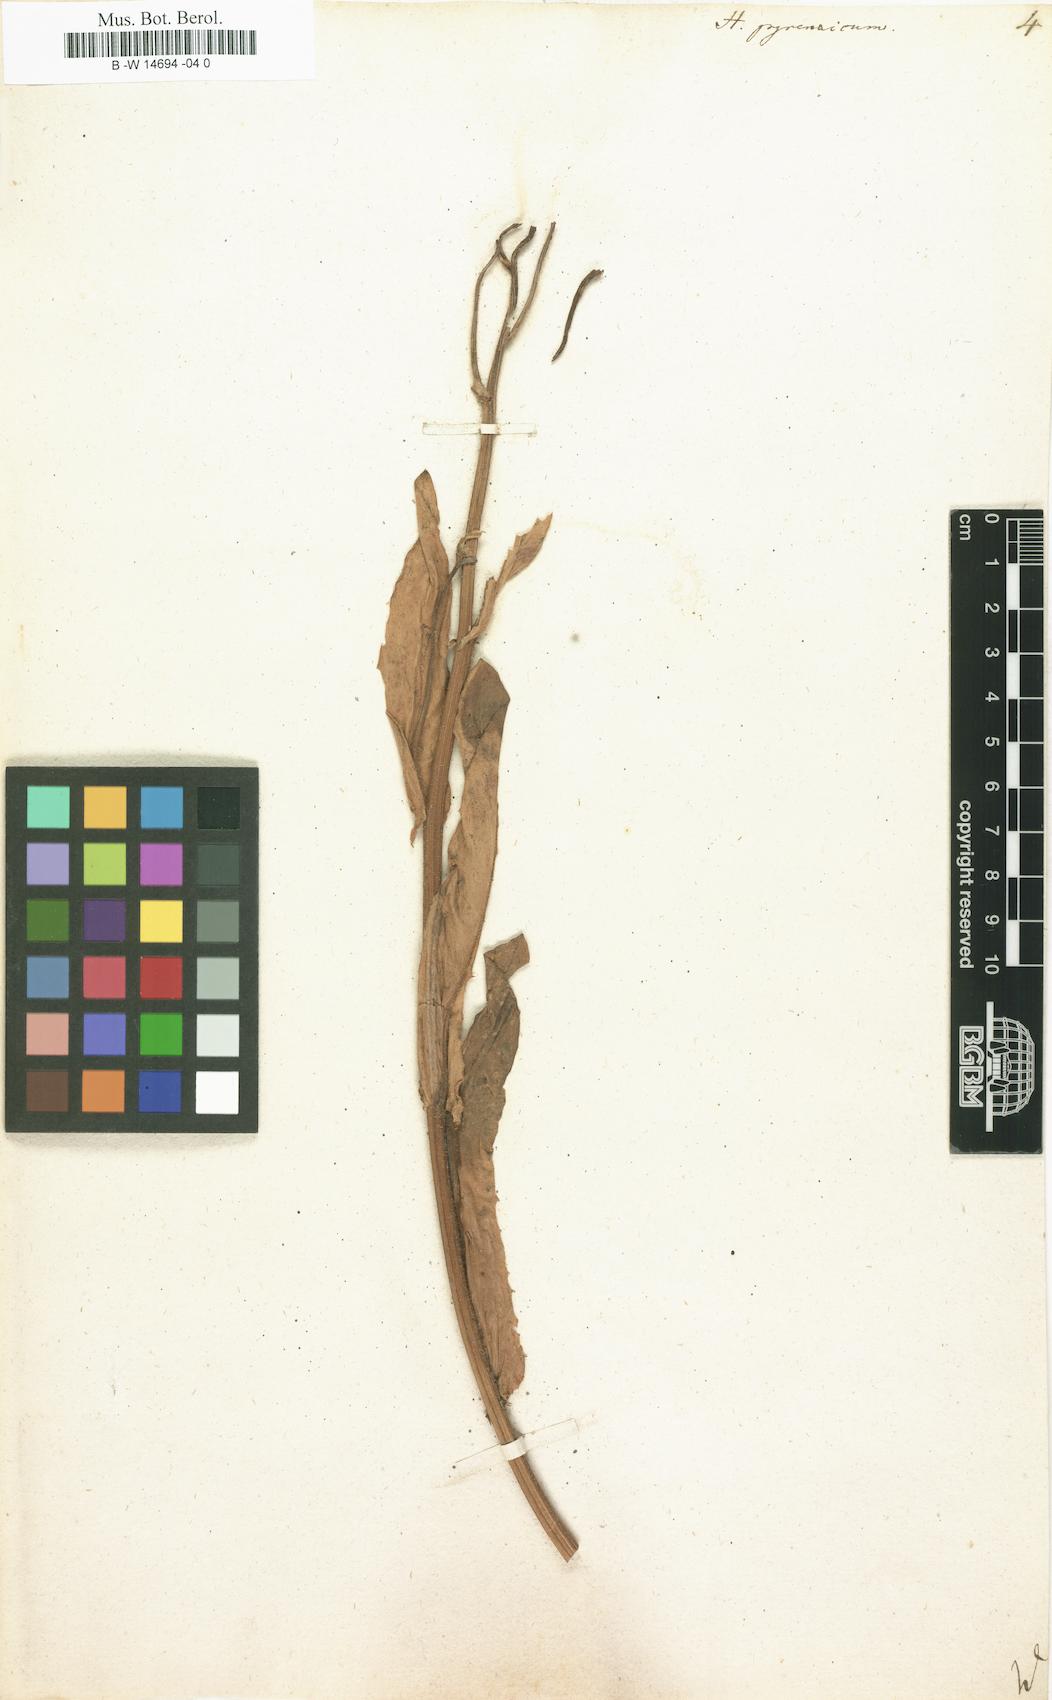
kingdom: Plantae
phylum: Tracheophyta
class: Magnoliopsida
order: Asterales
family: Asteraceae
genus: Hieracium
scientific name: Hieracium pyrenaicum
